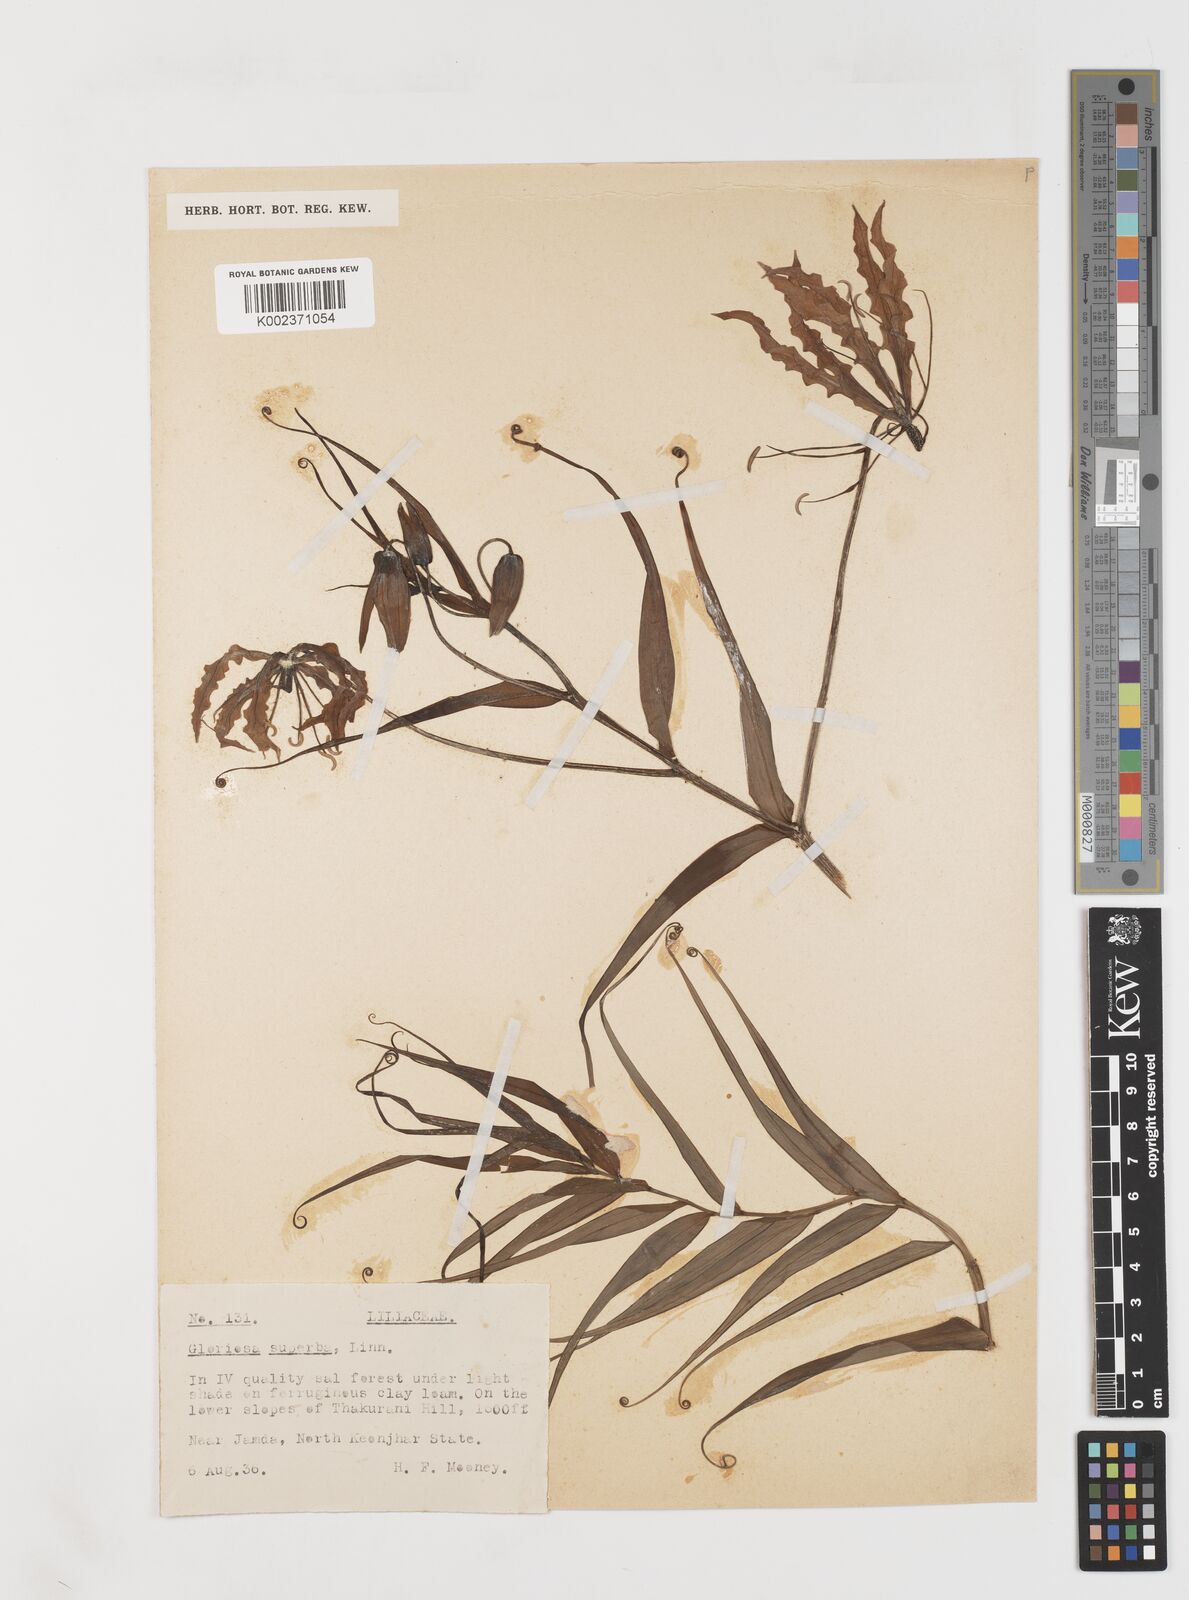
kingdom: Plantae
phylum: Tracheophyta
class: Liliopsida
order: Liliales
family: Colchicaceae
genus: Gloriosa
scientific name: Gloriosa
